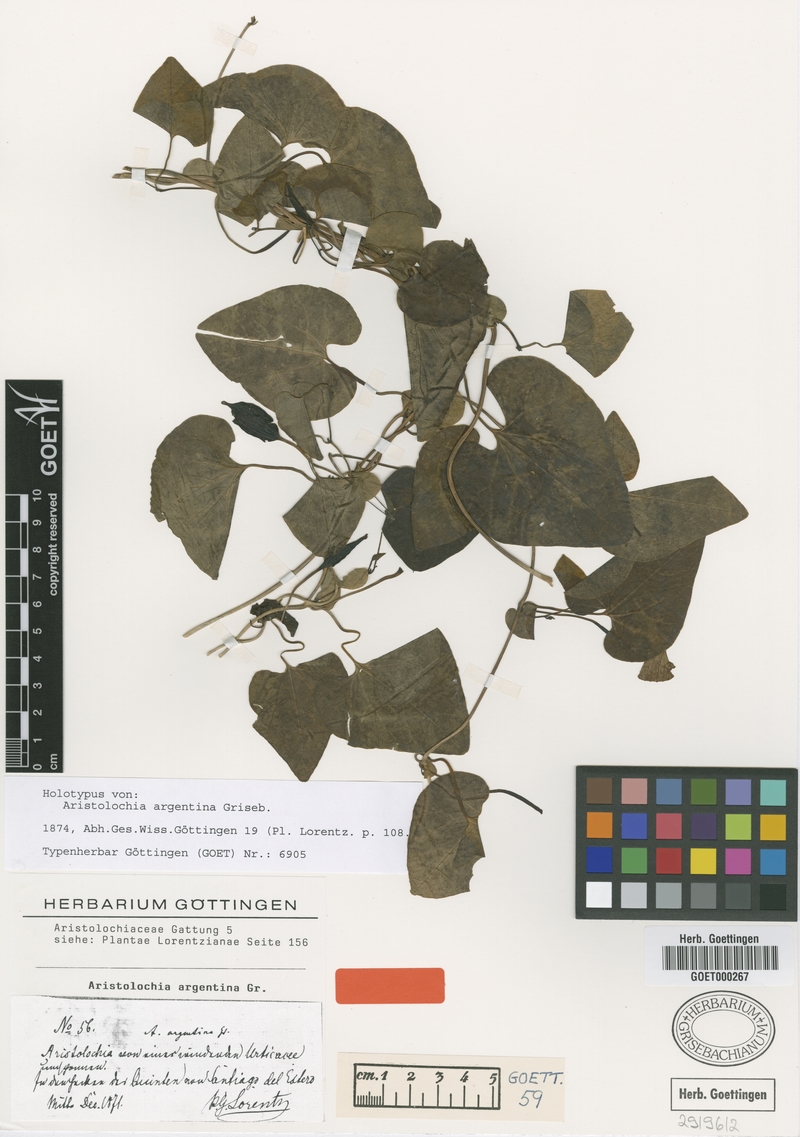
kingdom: Plantae
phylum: Tracheophyta
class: Magnoliopsida
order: Piperales
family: Aristolochiaceae
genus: Aristolochia
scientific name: Aristolochia argentina
